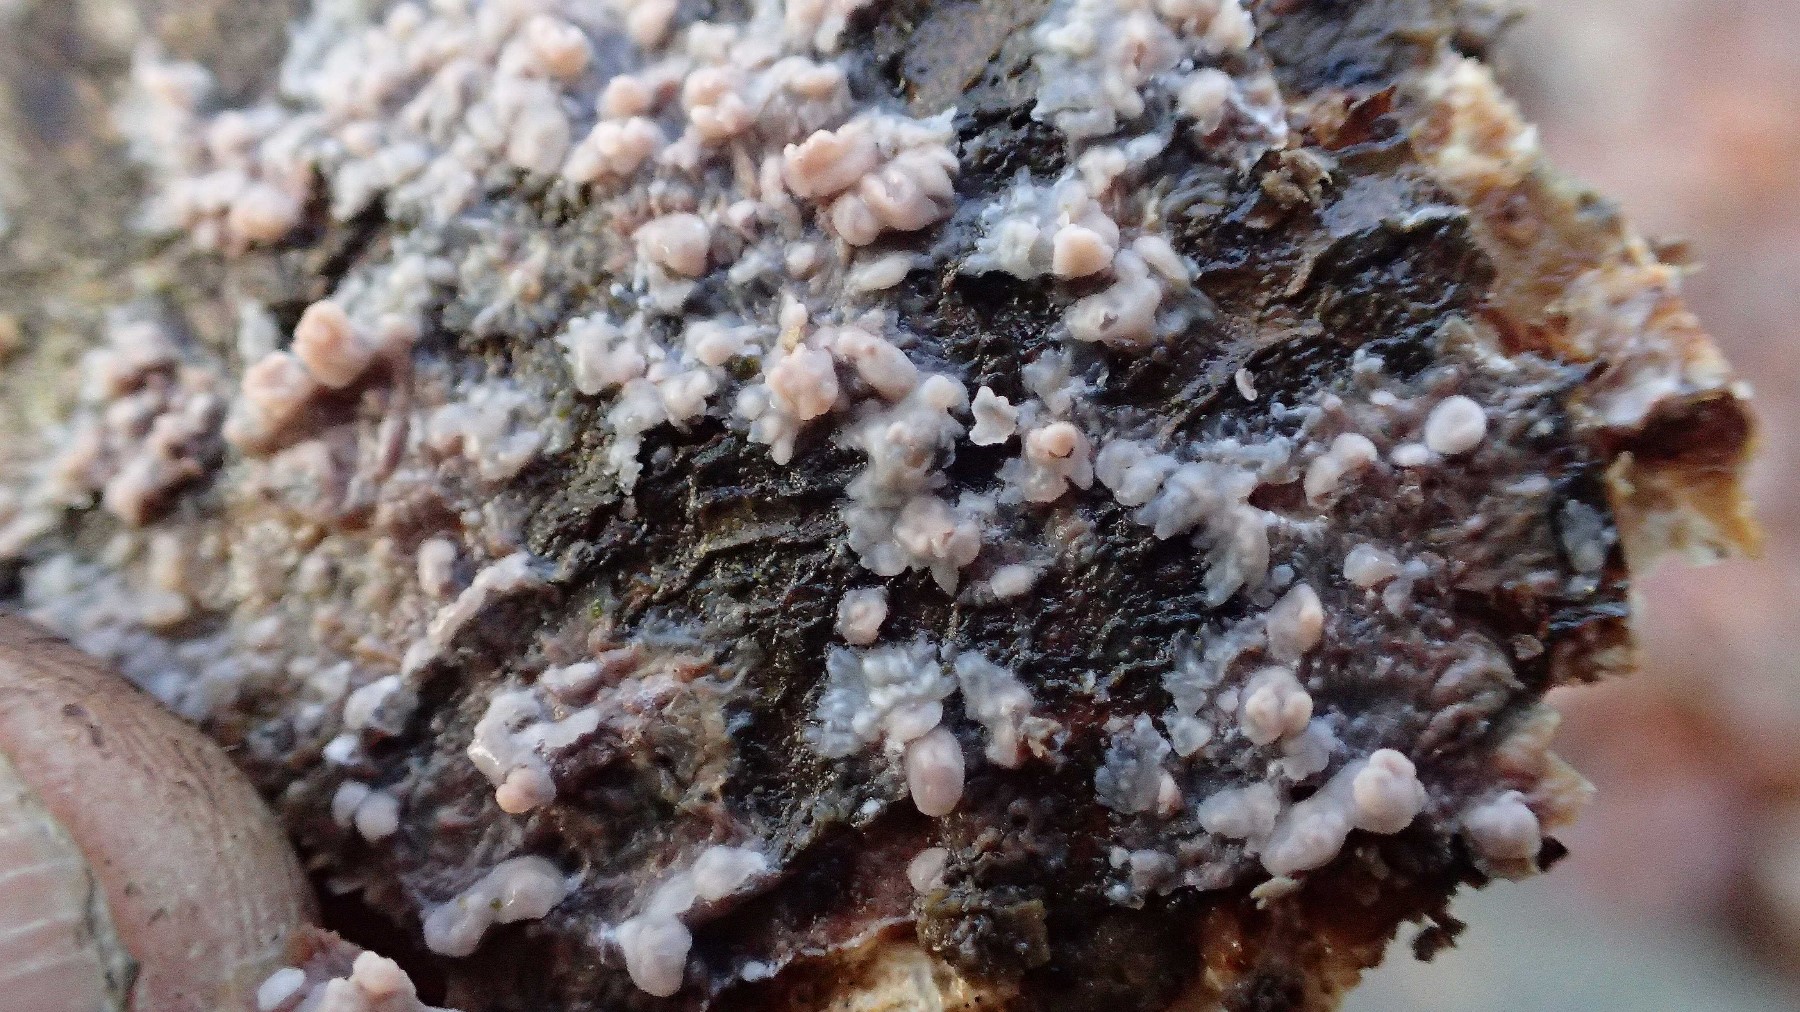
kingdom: Fungi
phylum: Basidiomycota
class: Agaricomycetes
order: Polyporales
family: Meruliaceae
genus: Phlebia
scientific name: Phlebia radiata
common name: stråle-åresvamp
